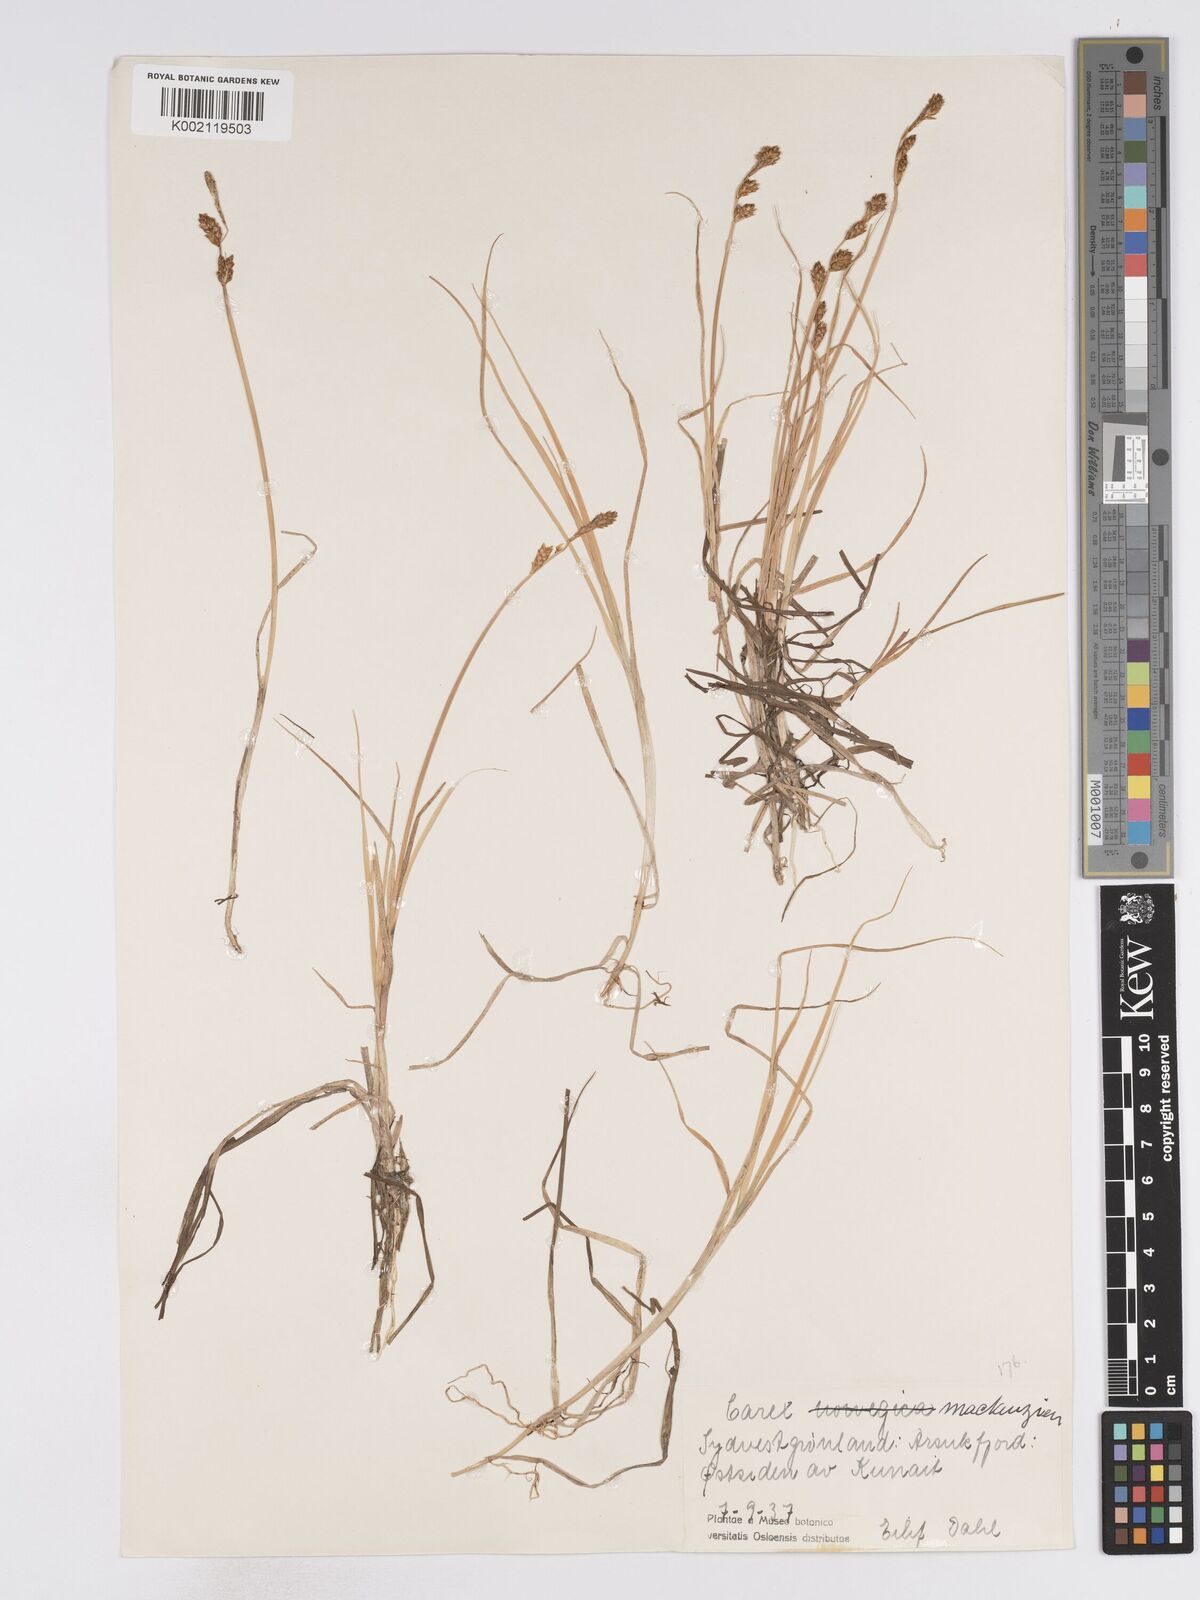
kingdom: Plantae
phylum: Tracheophyta
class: Liliopsida
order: Poales
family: Cyperaceae
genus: Carex
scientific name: Carex mackenziei
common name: Mackenzie's sedge
